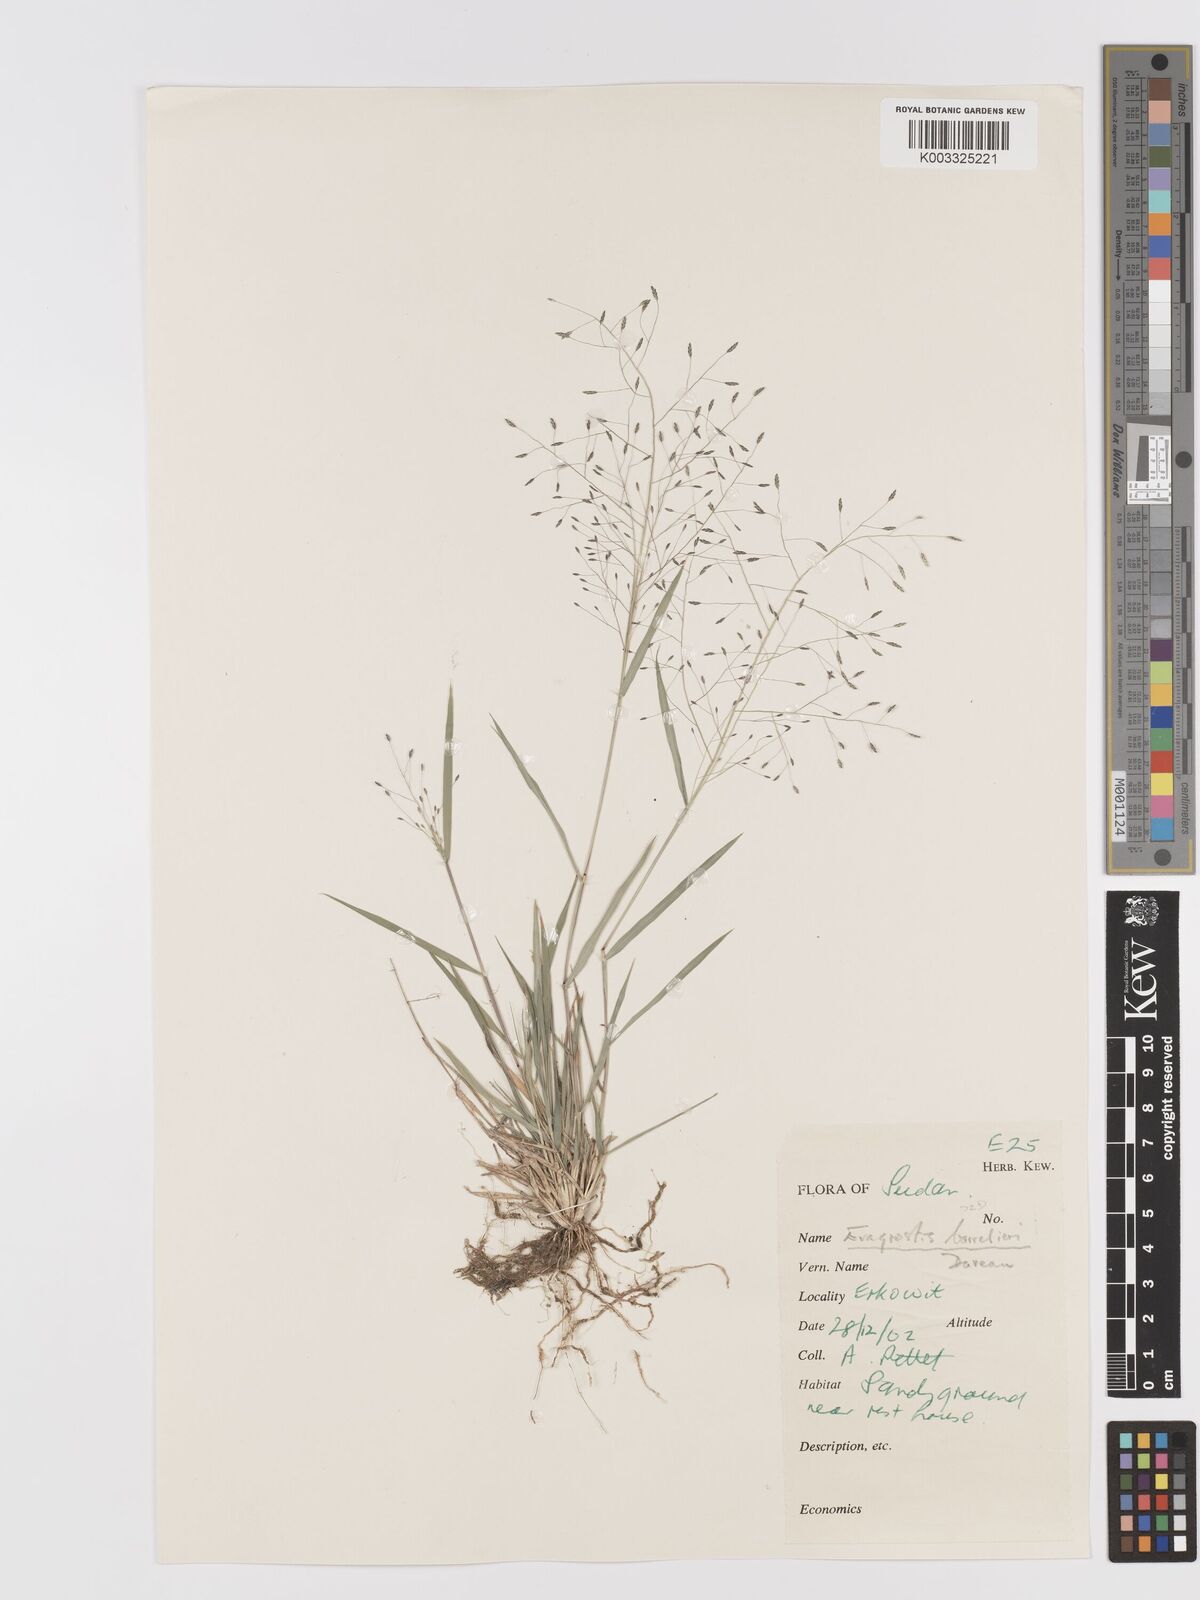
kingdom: Plantae
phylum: Tracheophyta
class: Liliopsida
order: Poales
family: Poaceae
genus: Eragrostis
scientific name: Eragrostis papposa
